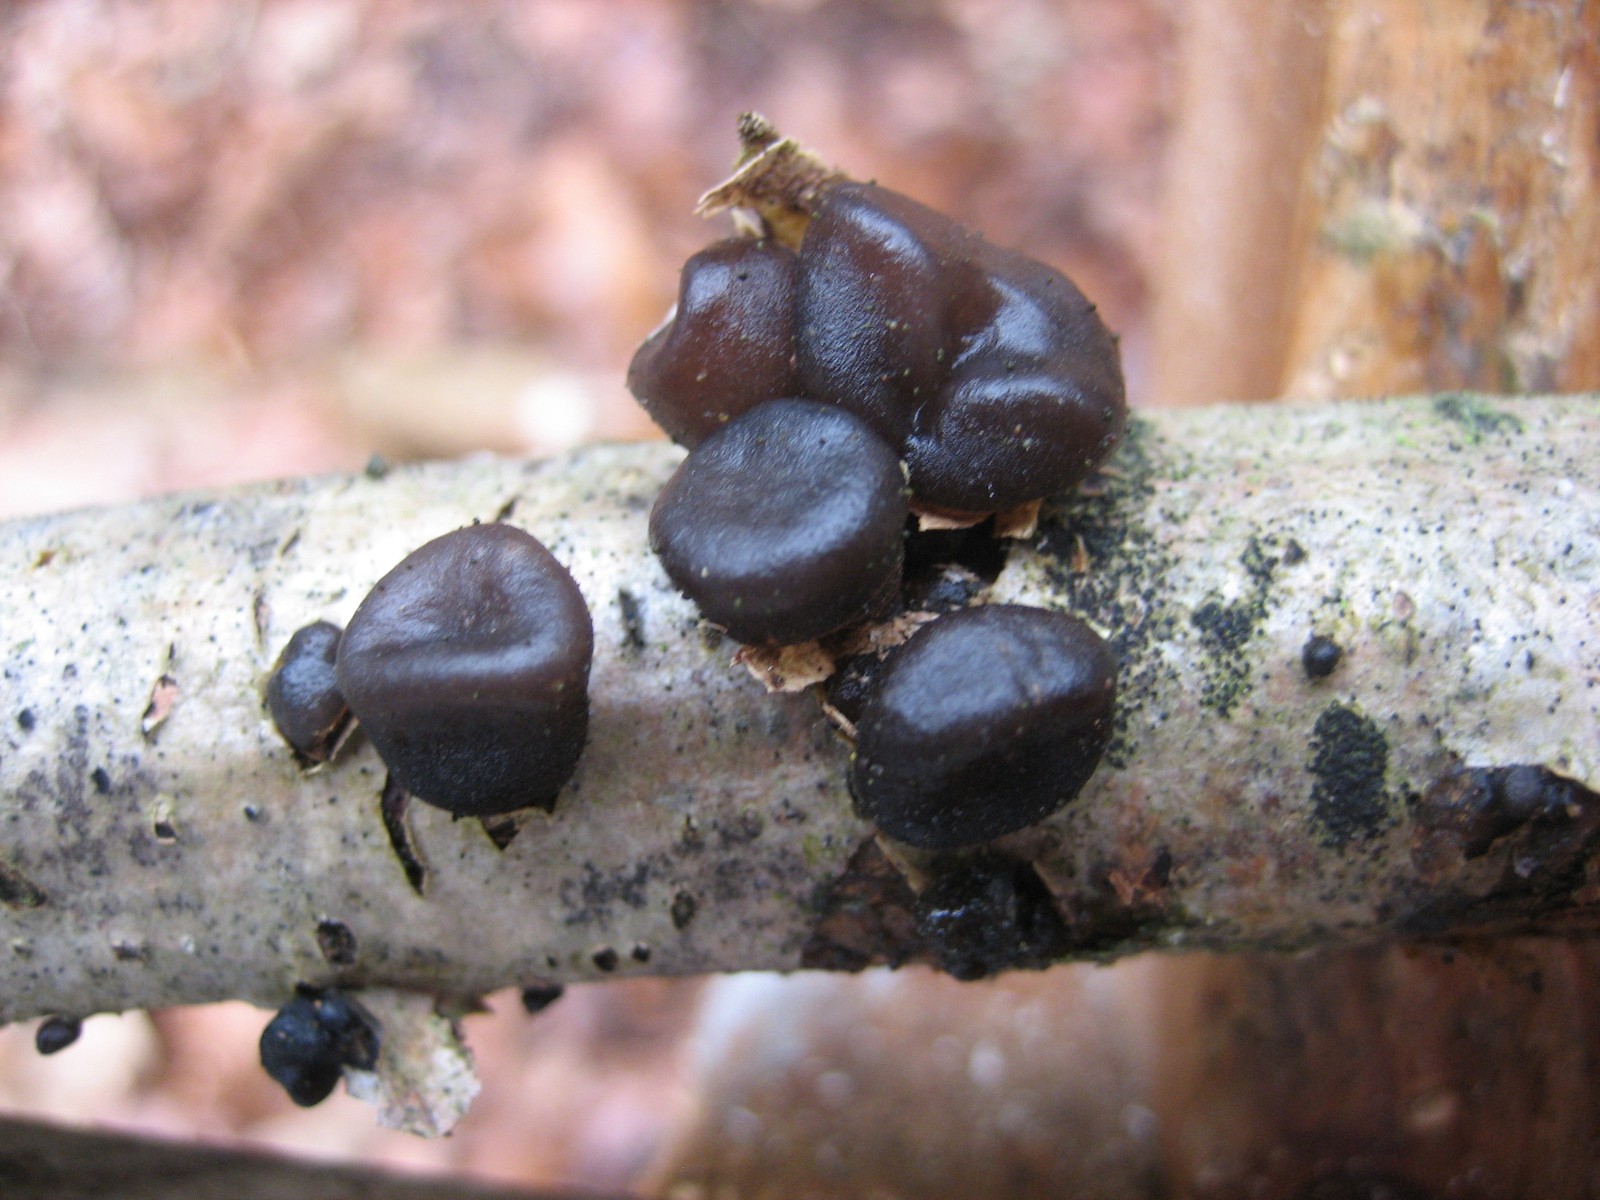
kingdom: Fungi
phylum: Basidiomycota
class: Agaricomycetes
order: Auriculariales
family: Auriculariaceae
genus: Exidia
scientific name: Exidia glandulosa
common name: ege-bævretop
